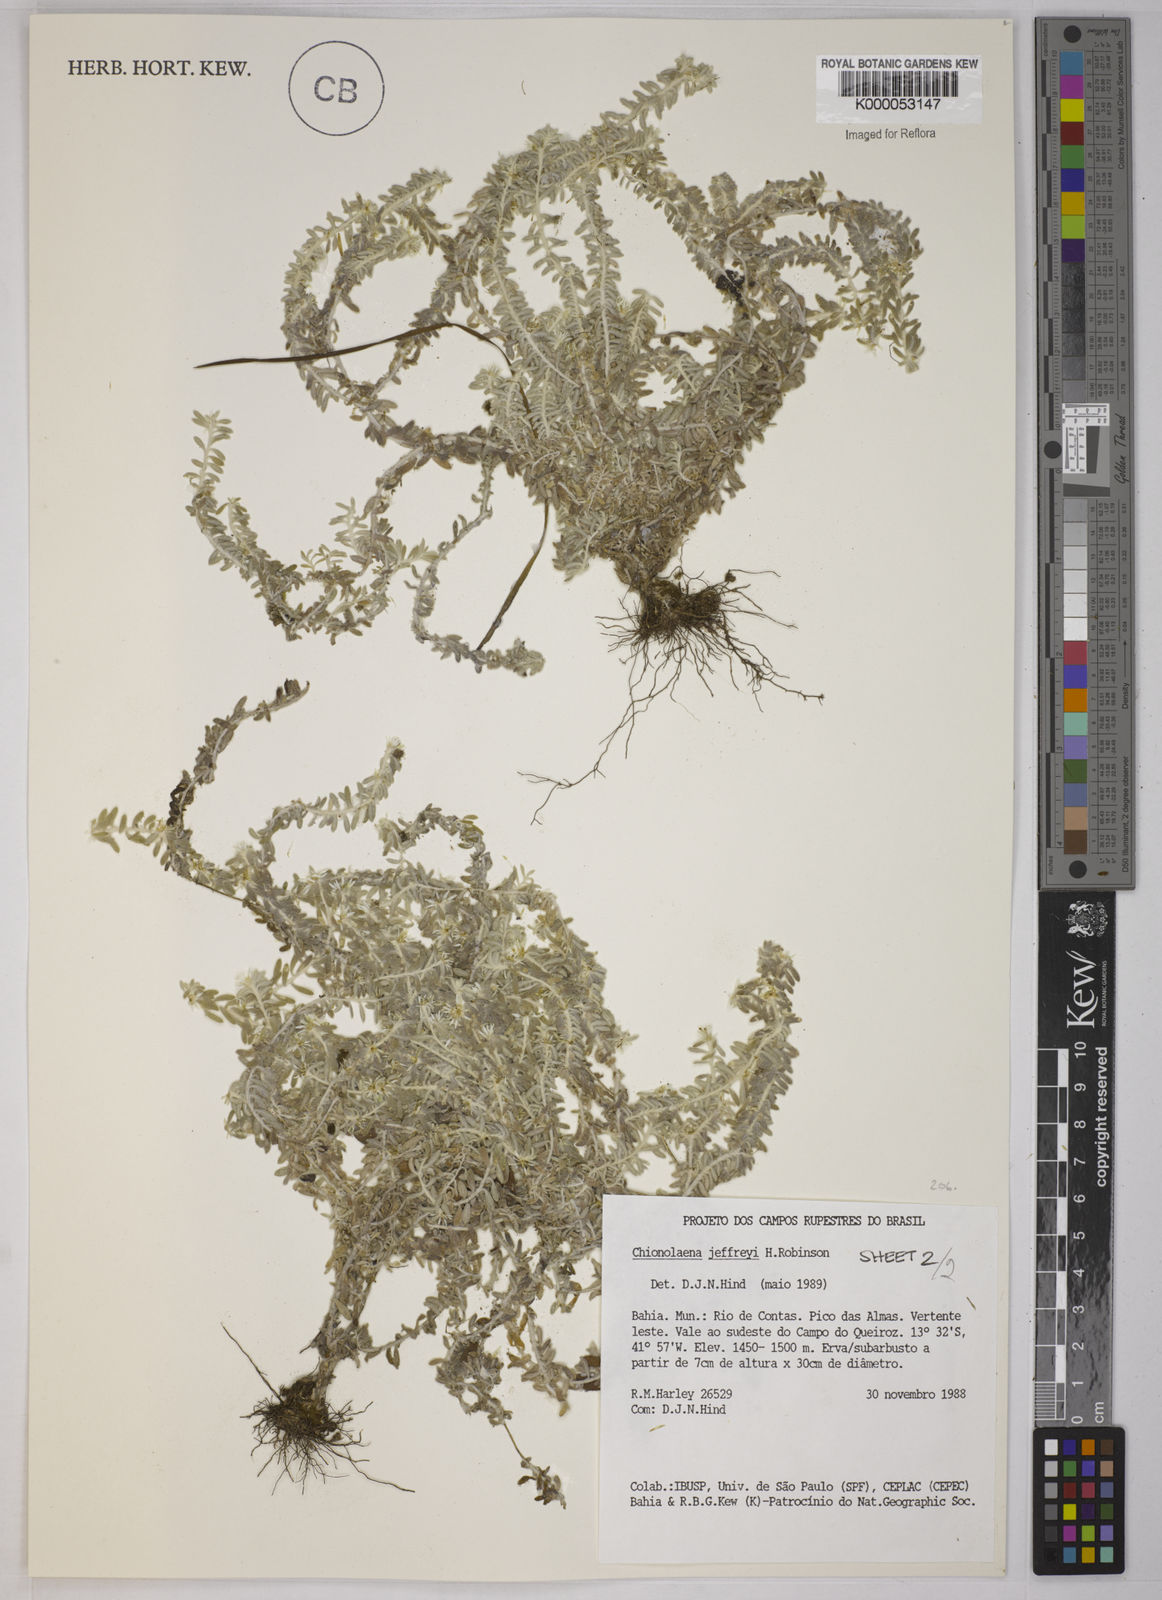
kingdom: Plantae
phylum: Tracheophyta
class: Magnoliopsida
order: Asterales
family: Asteraceae
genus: Chionolaena
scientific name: Chionolaena jeffreyi
